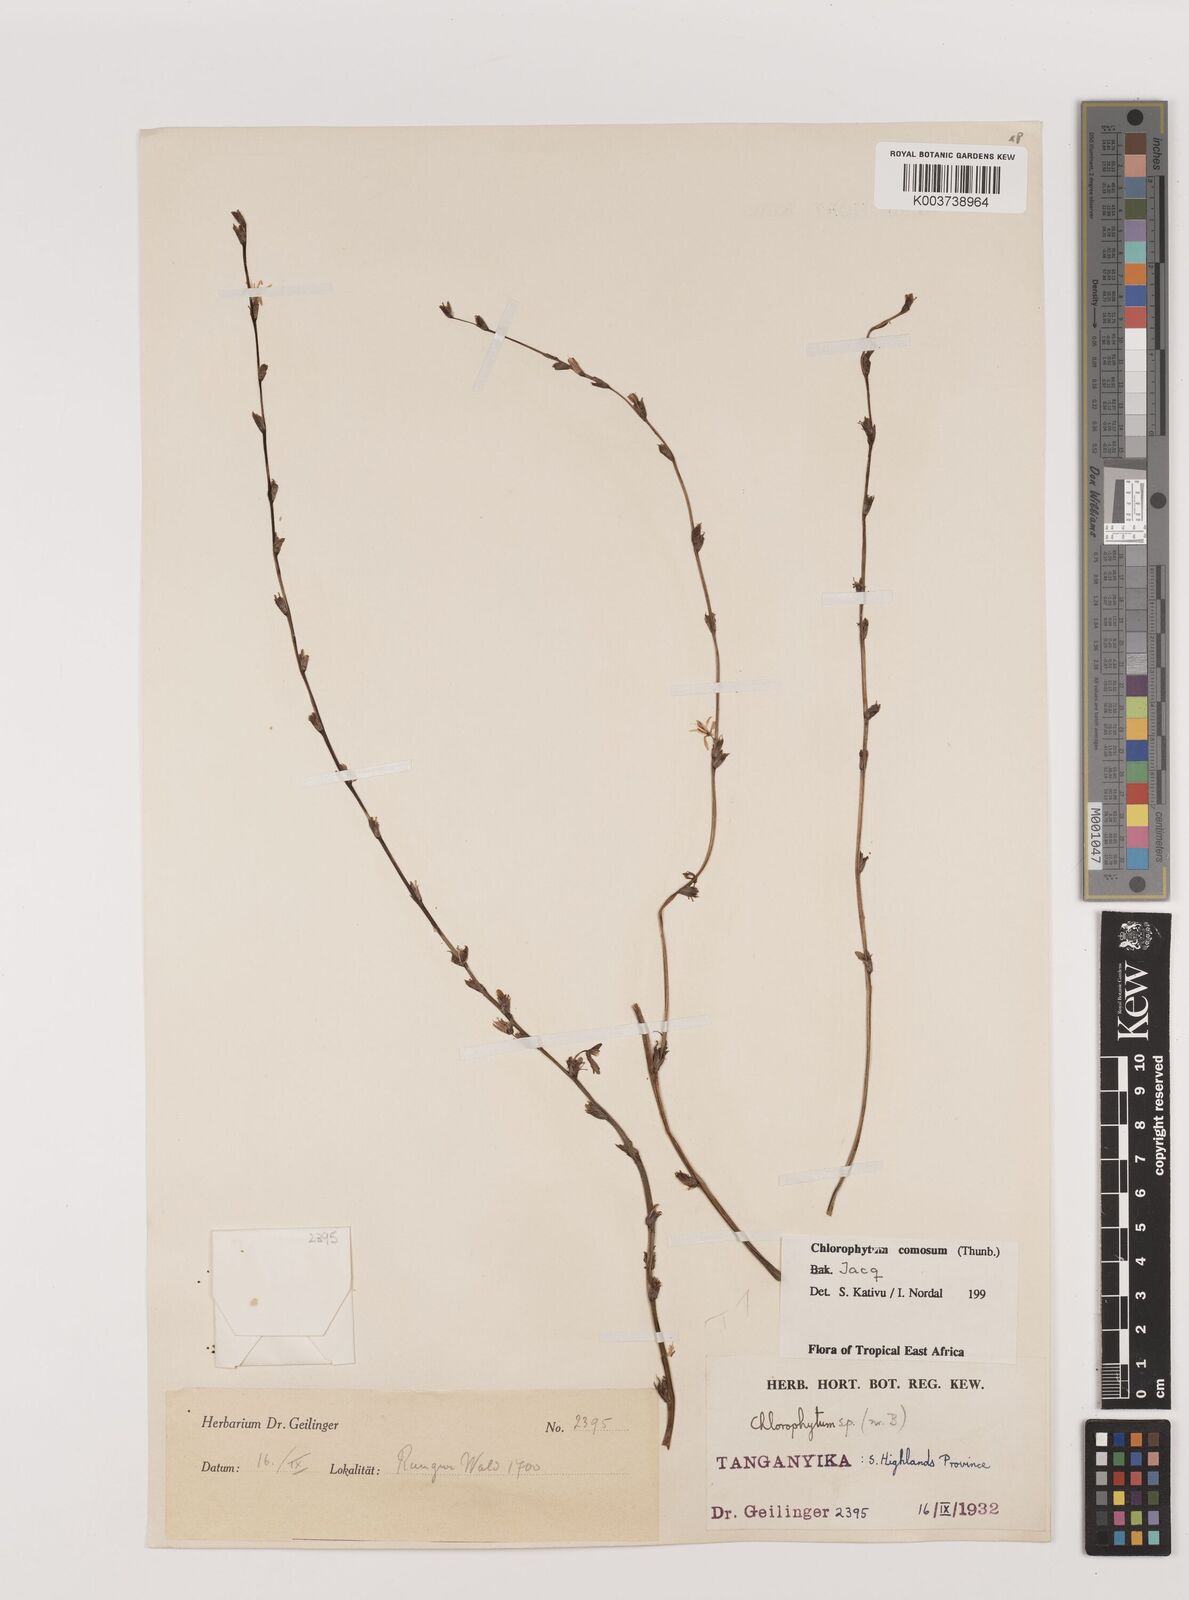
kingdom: Plantae
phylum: Tracheophyta
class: Liliopsida
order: Asparagales
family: Asparagaceae
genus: Chlorophytum
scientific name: Chlorophytum comosum
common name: Spider plant
